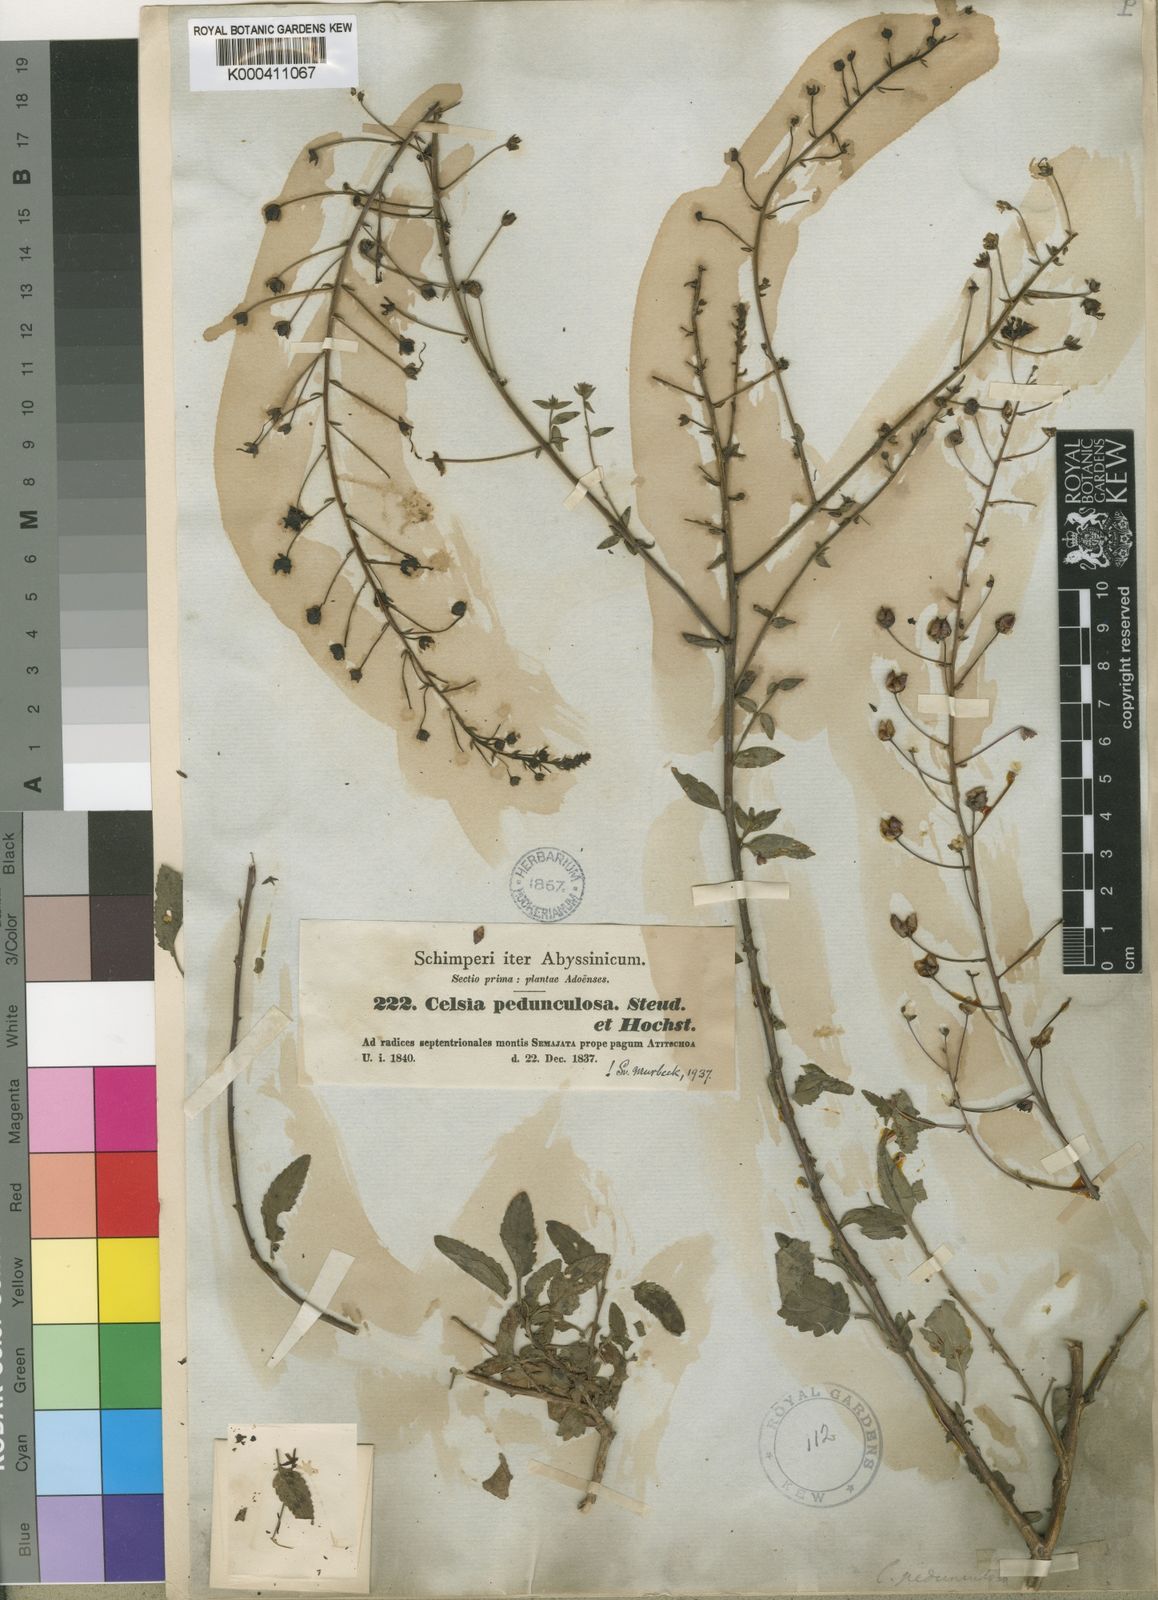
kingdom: Plantae
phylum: Tracheophyta
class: Magnoliopsida
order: Lamiales
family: Scrophulariaceae
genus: Verbascum
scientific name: Verbascum pedunculosum
